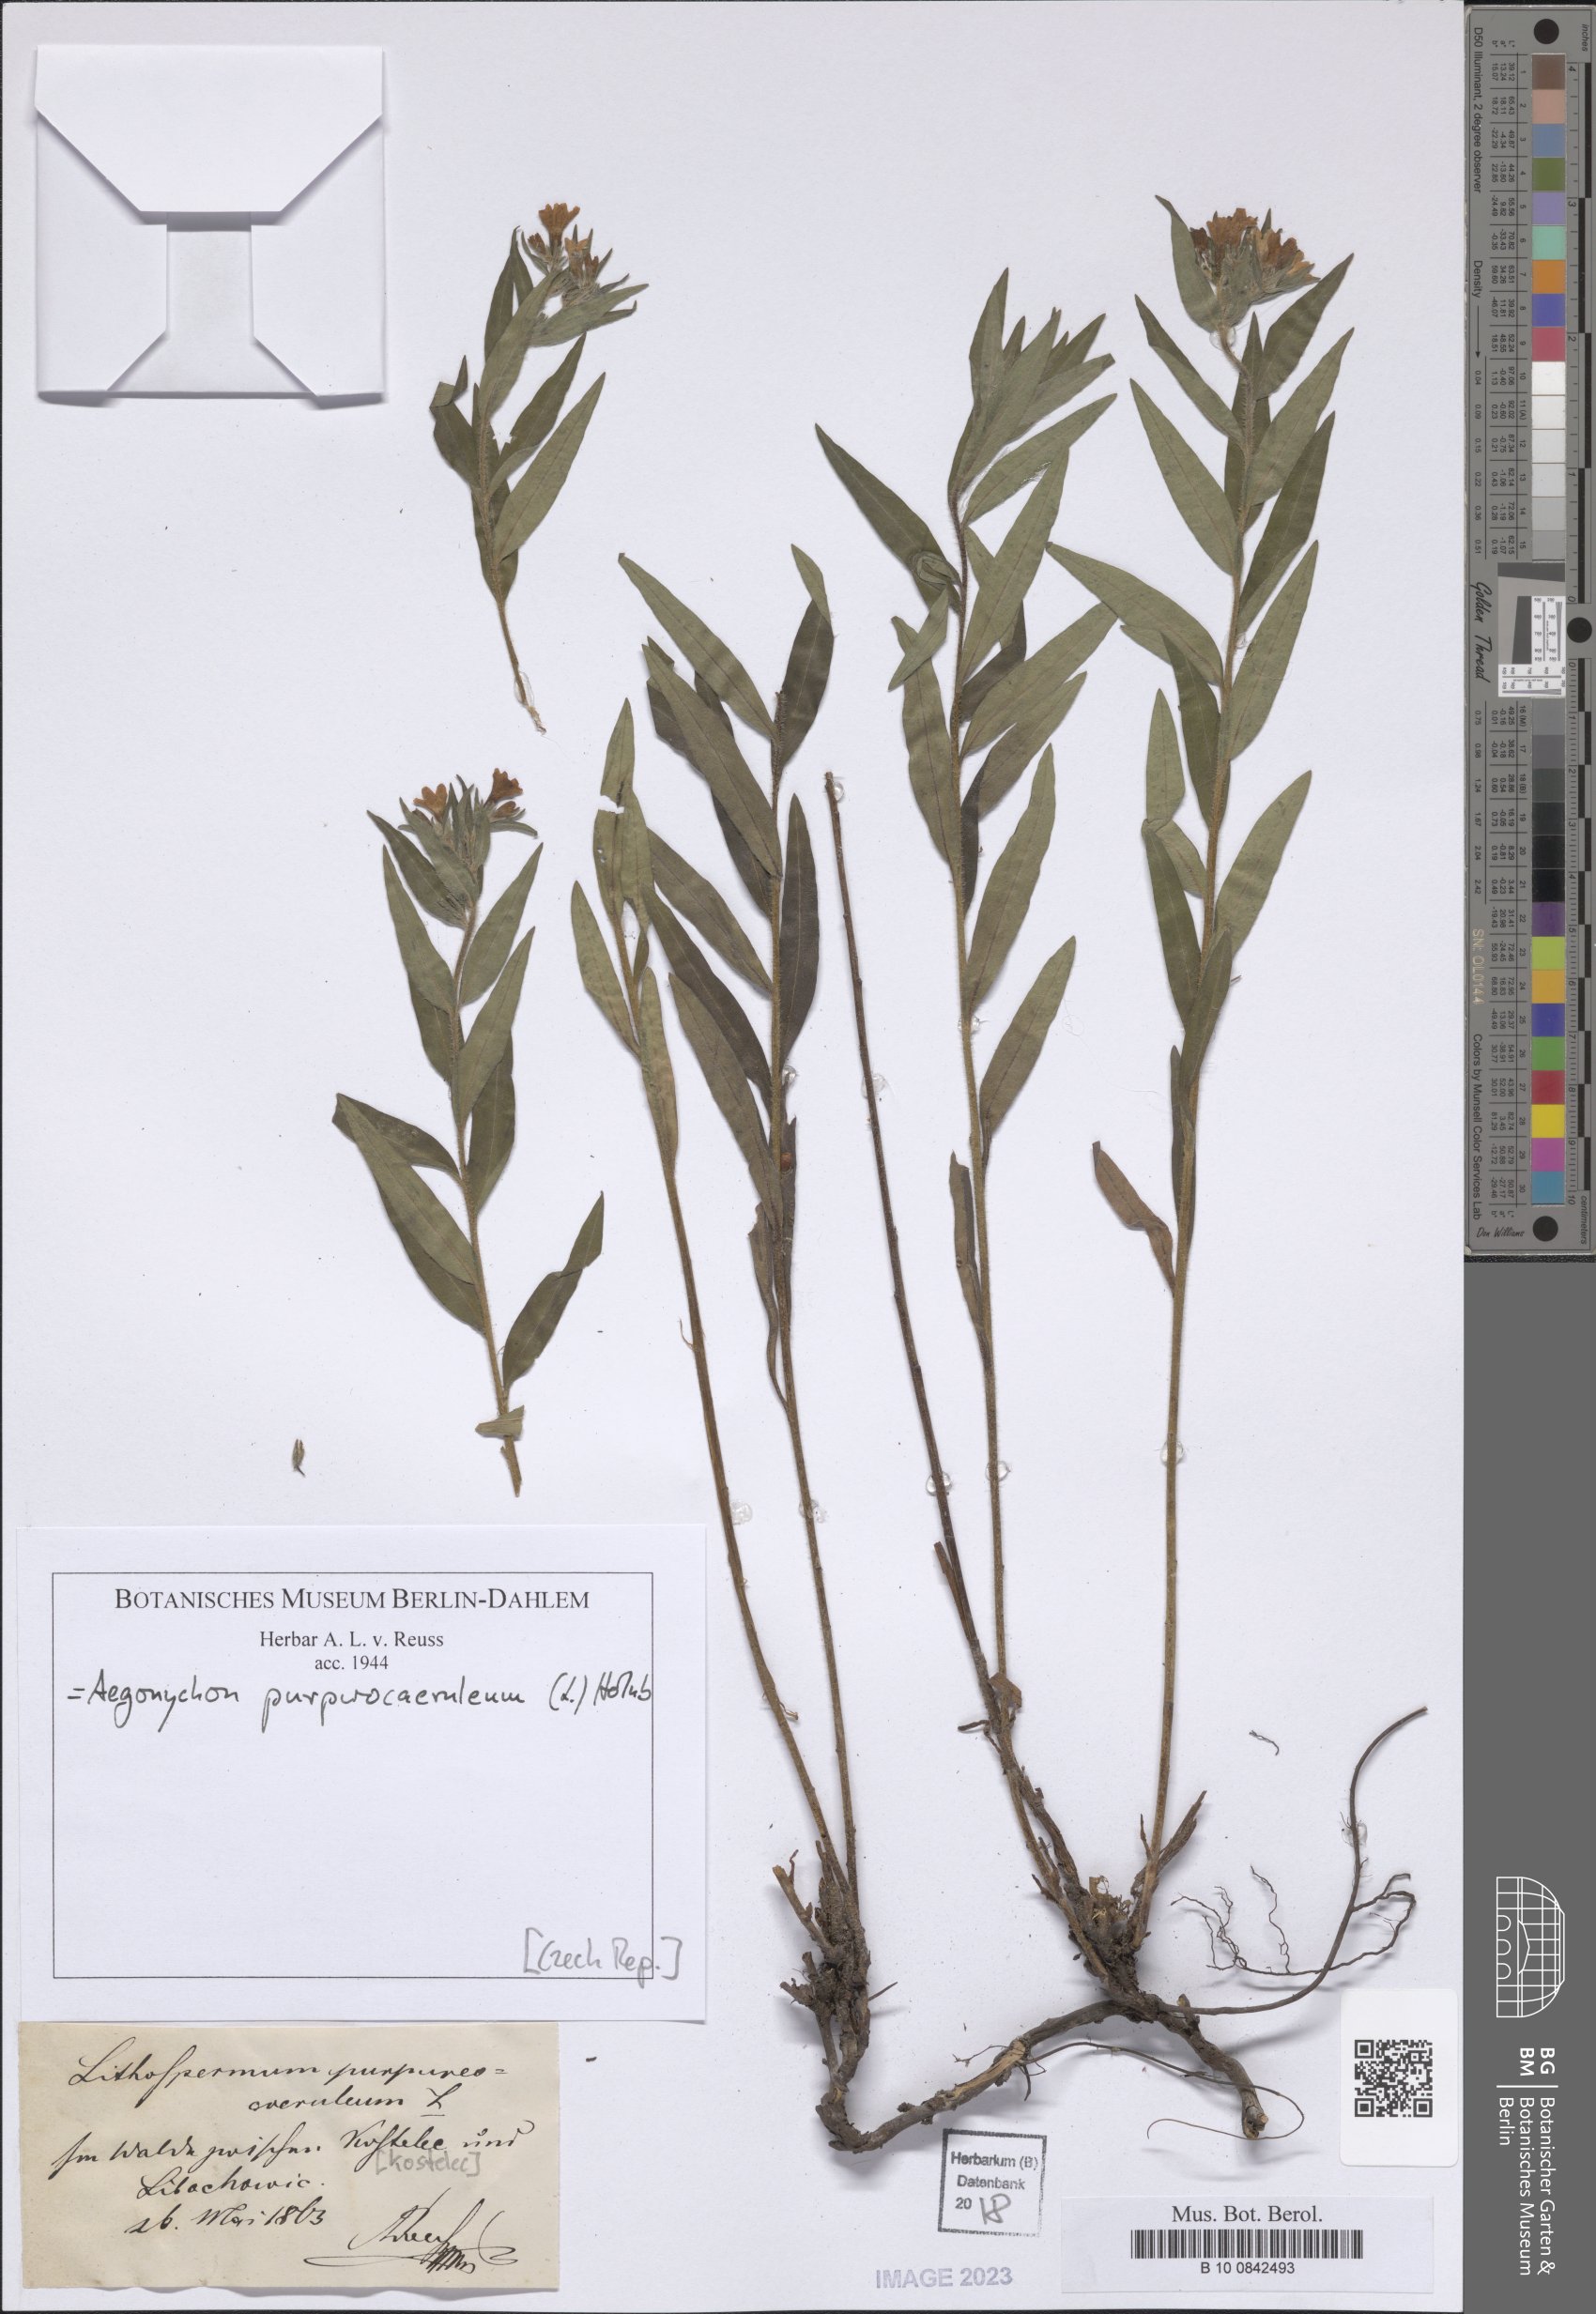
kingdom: Plantae
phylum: Tracheophyta
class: Magnoliopsida
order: Boraginales
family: Boraginaceae
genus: Aegonychon
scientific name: Aegonychon purpurocaeruleum
